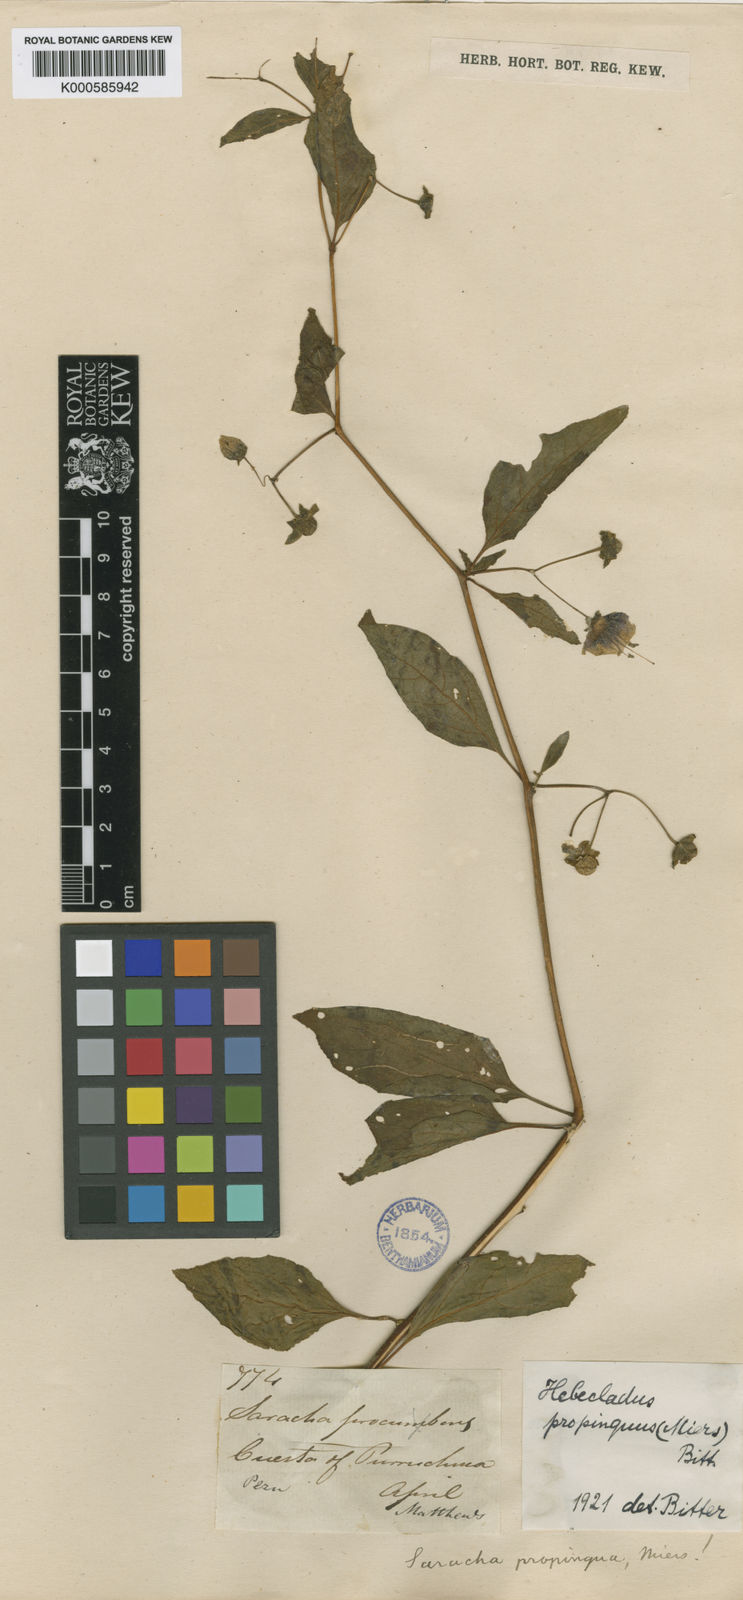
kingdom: Plantae
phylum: Tracheophyta
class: Magnoliopsida
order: Solanales
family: Solanaceae
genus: Jaltomata
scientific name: Jaltomata propinqua
